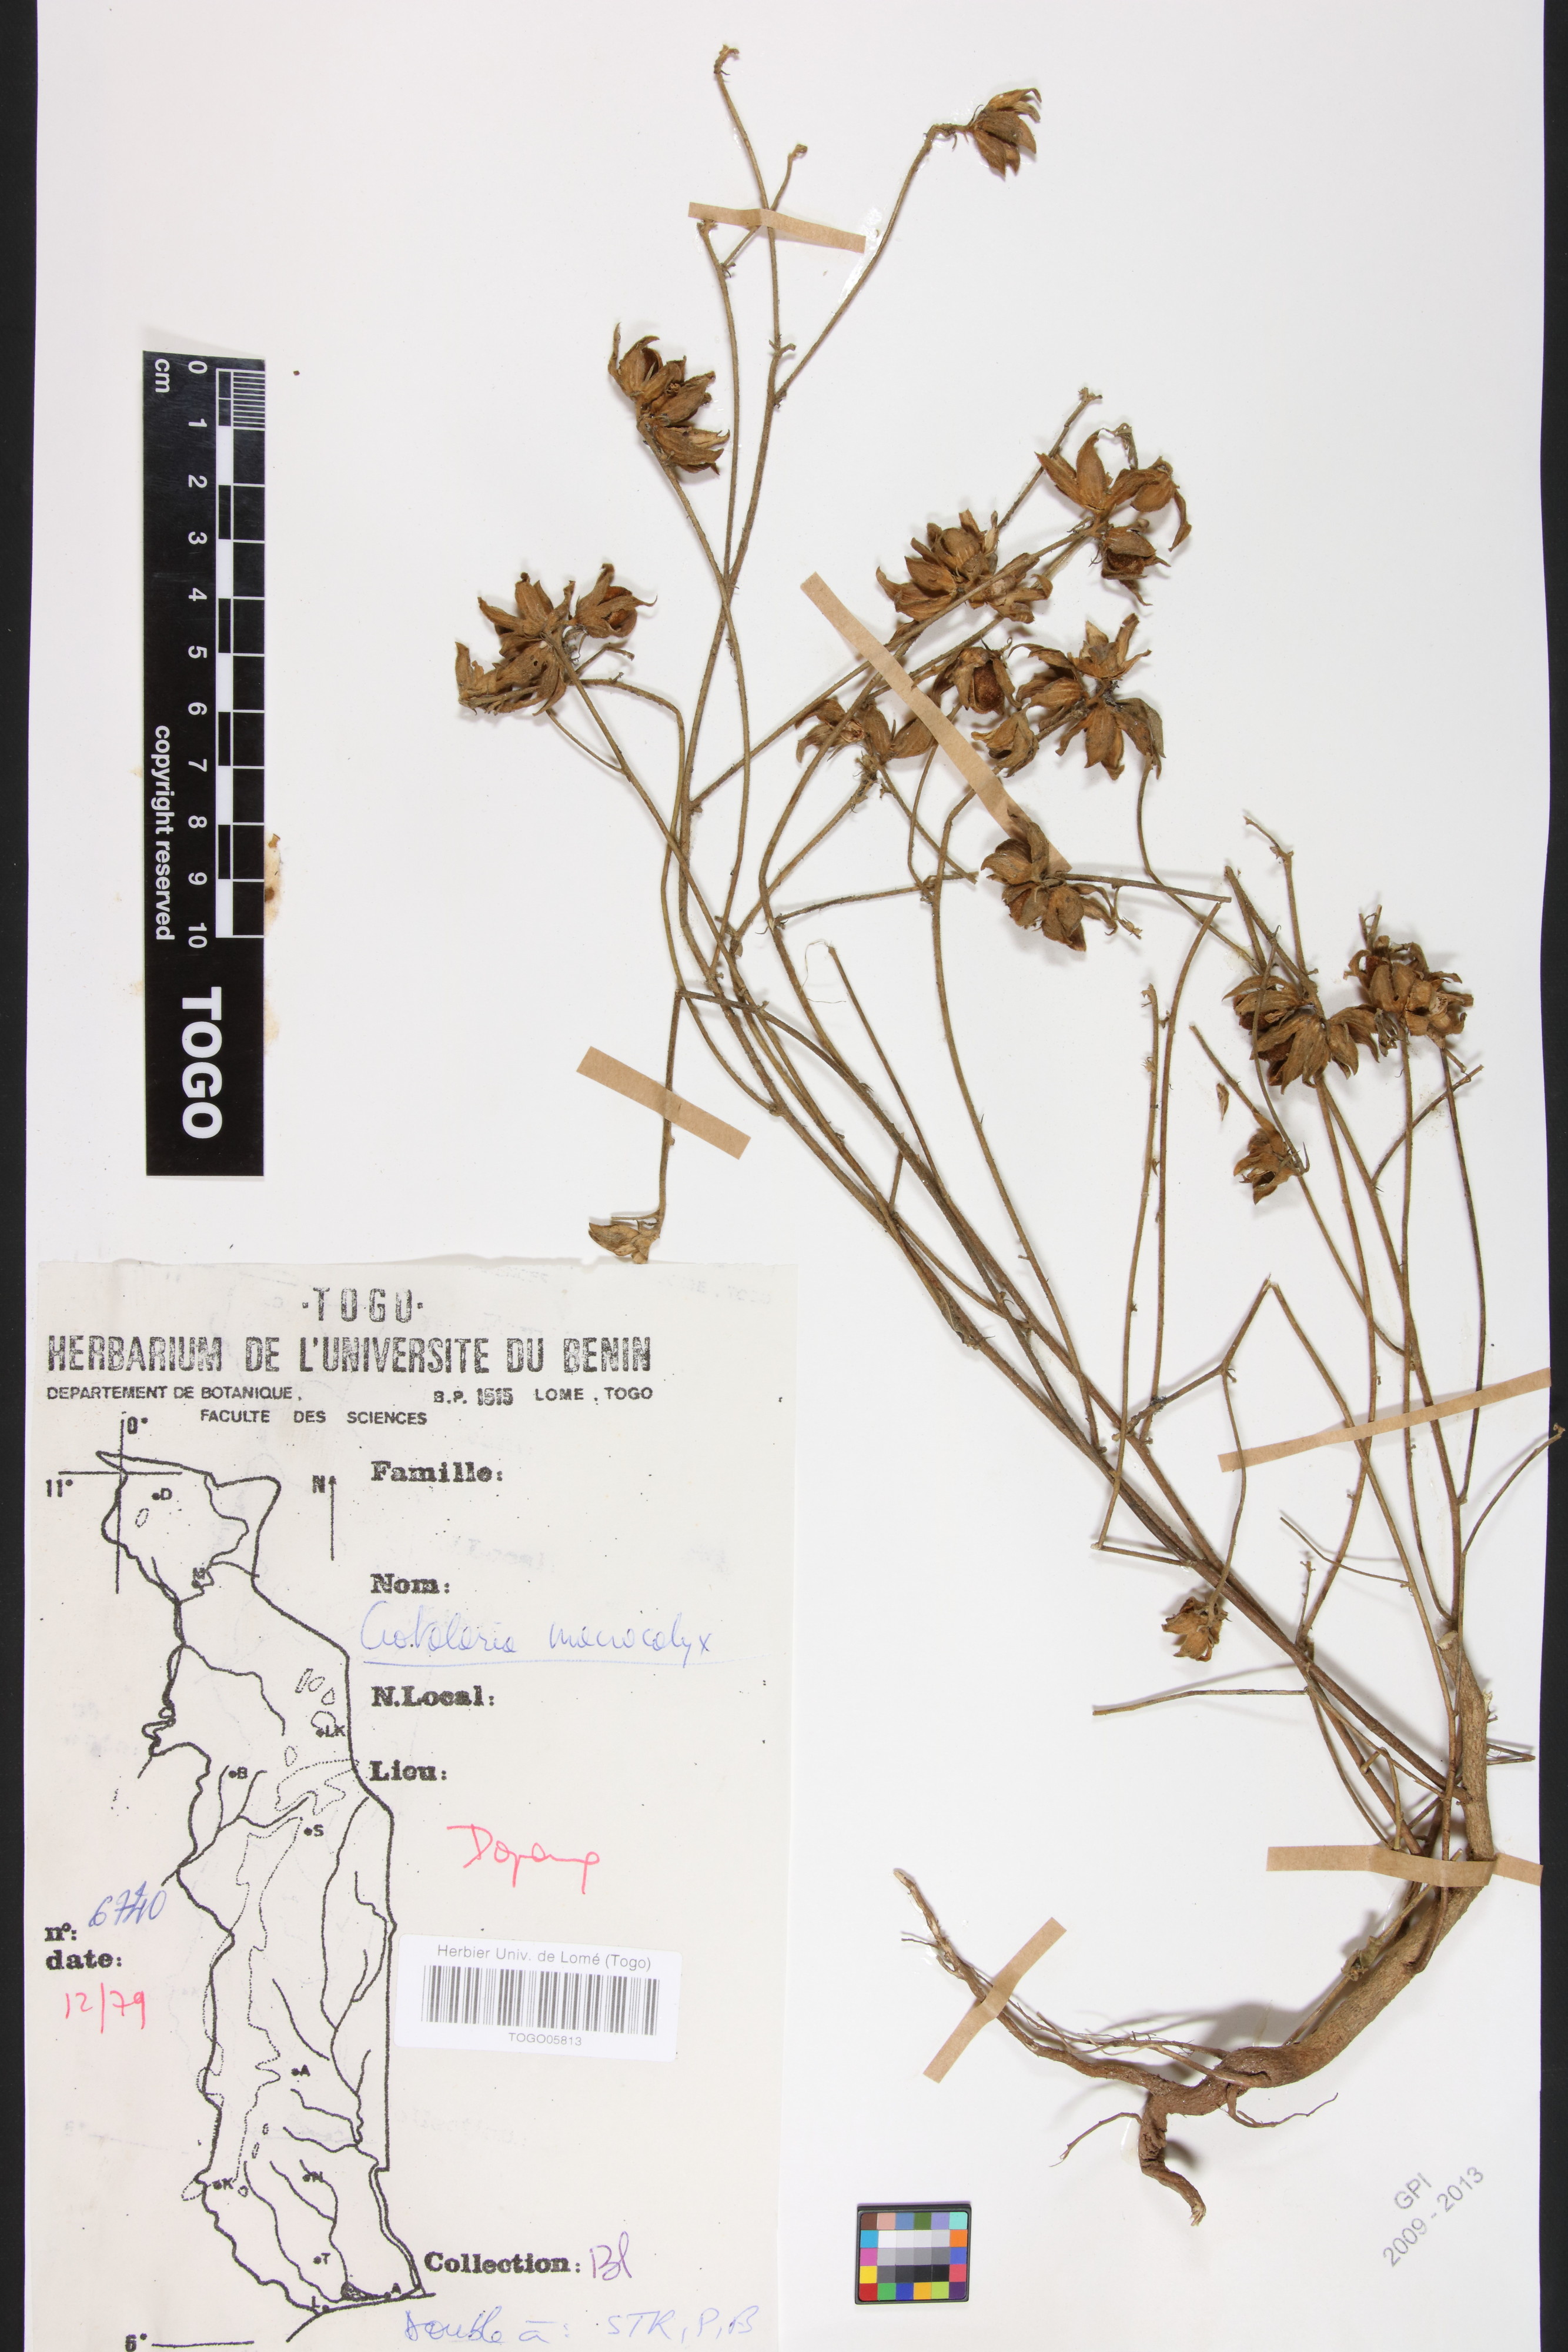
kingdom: Plantae
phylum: Tracheophyta
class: Magnoliopsida
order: Fabales
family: Fabaceae
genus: Crotalaria
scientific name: Crotalaria macrocalyx
